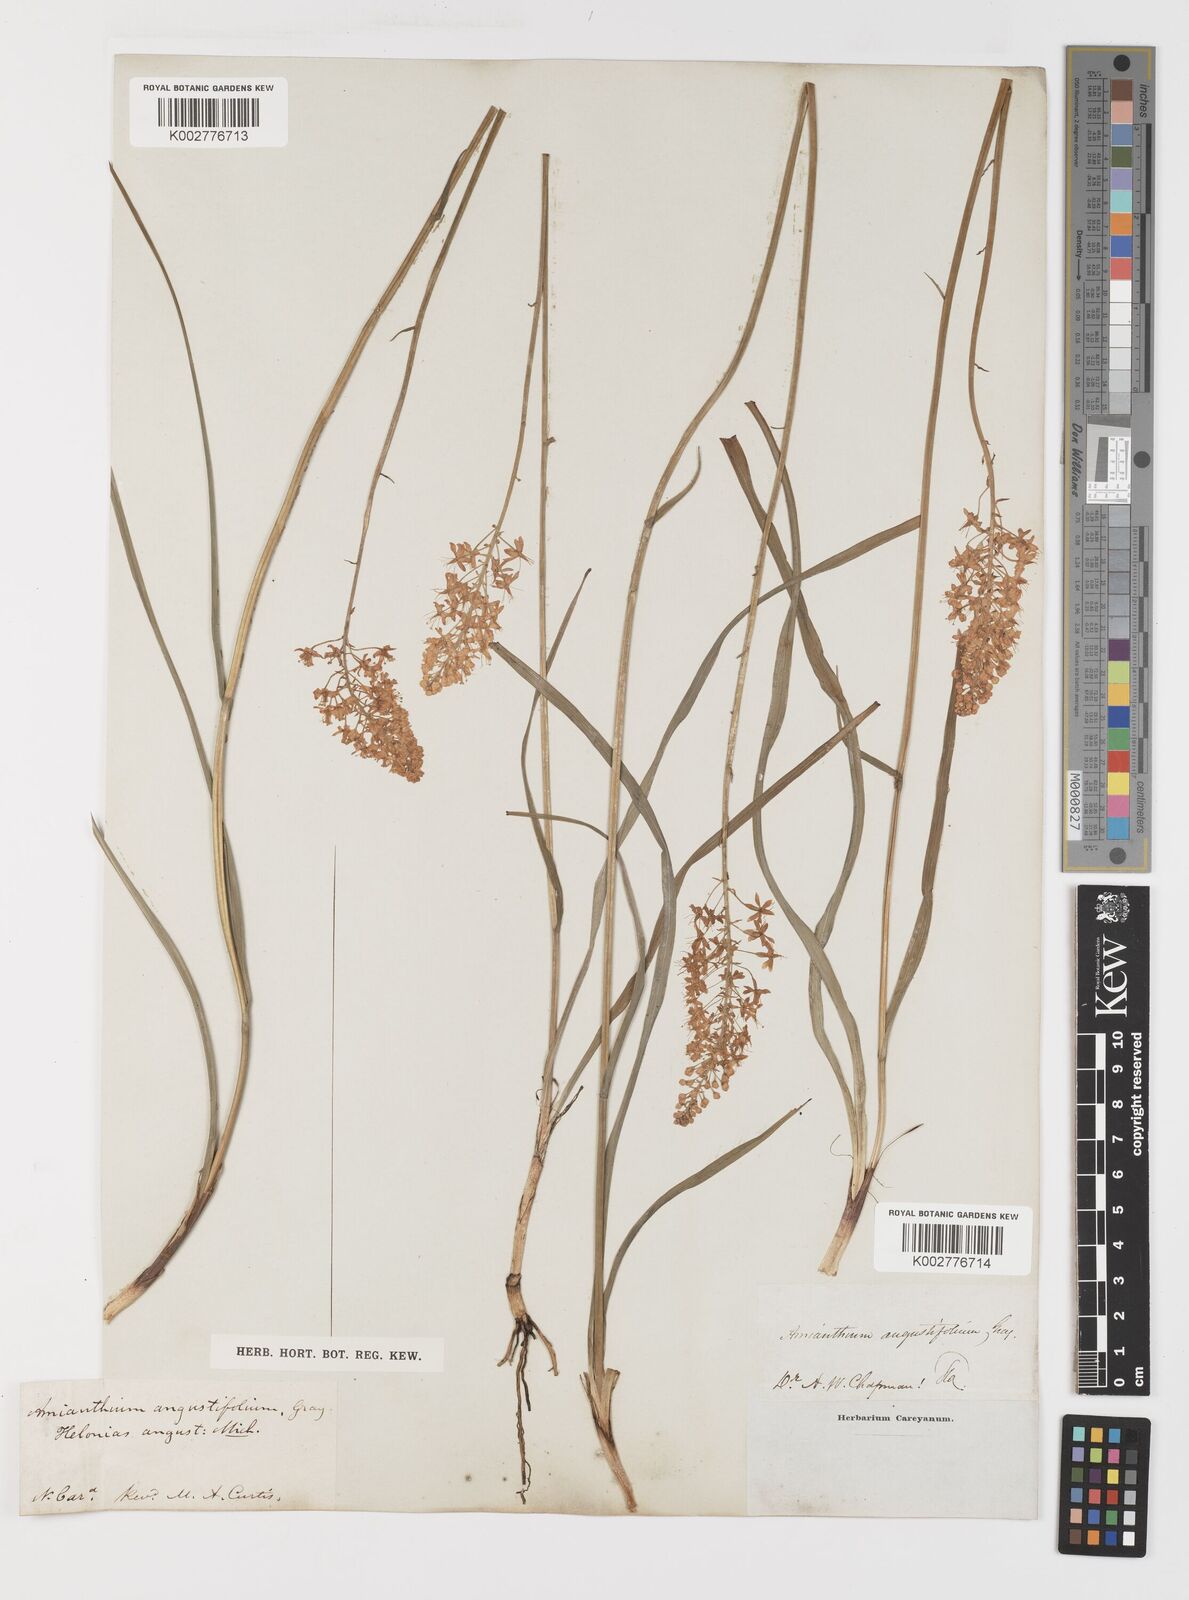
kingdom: Plantae
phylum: Tracheophyta
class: Liliopsida
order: Liliales
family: Melanthiaceae
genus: Stenanthium
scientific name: Stenanthium densum
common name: Crow-poison
